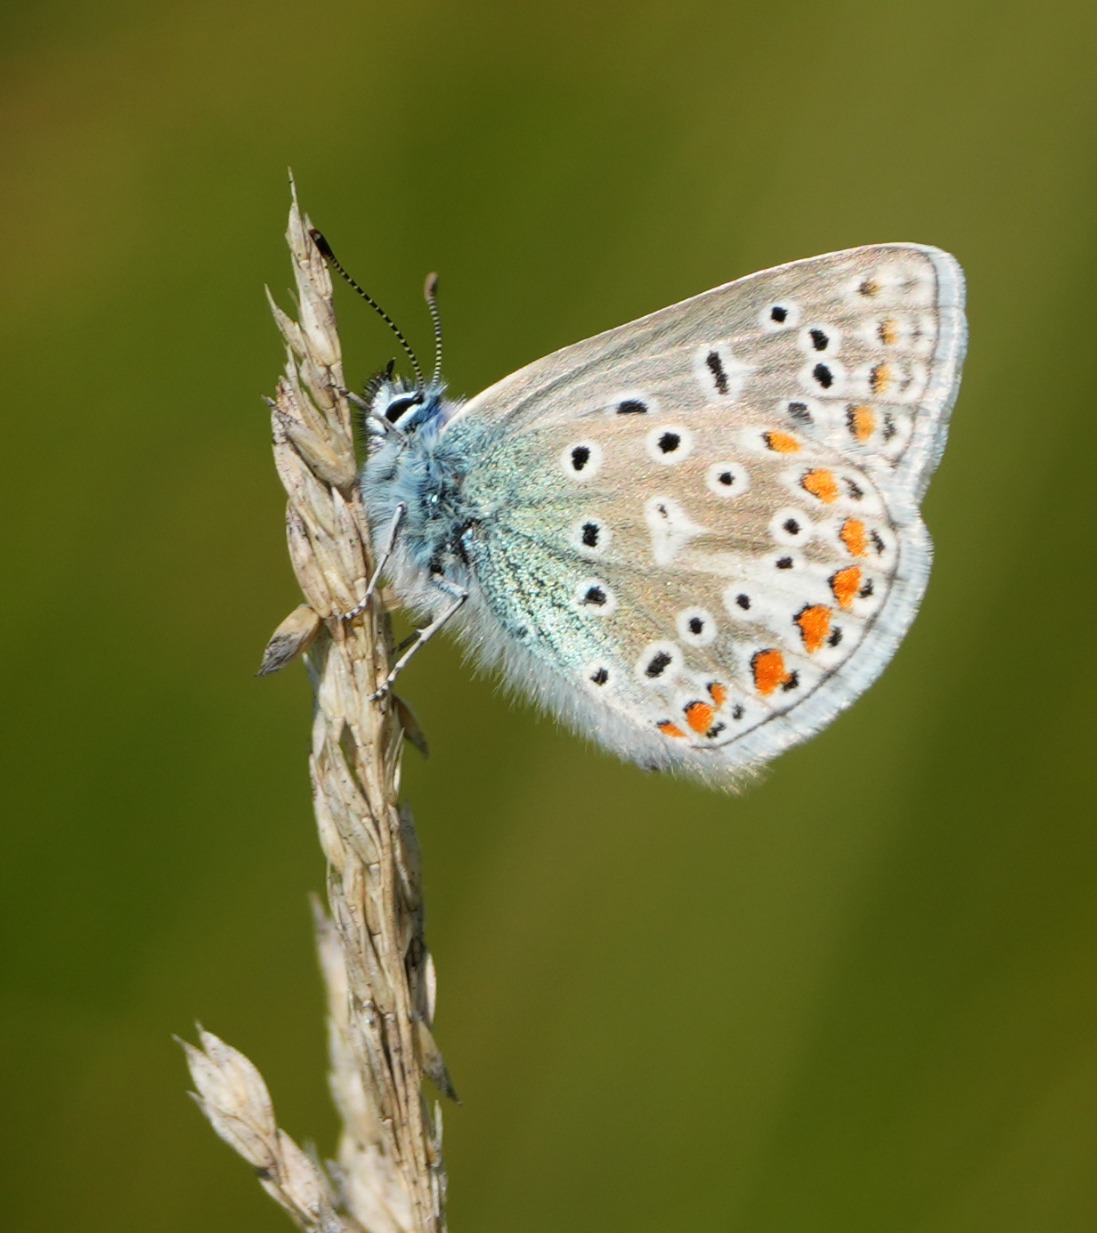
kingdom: Animalia
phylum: Arthropoda
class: Insecta
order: Lepidoptera
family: Lycaenidae
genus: Polyommatus
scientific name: Polyommatus icarus
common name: Almindelig blåfugl
